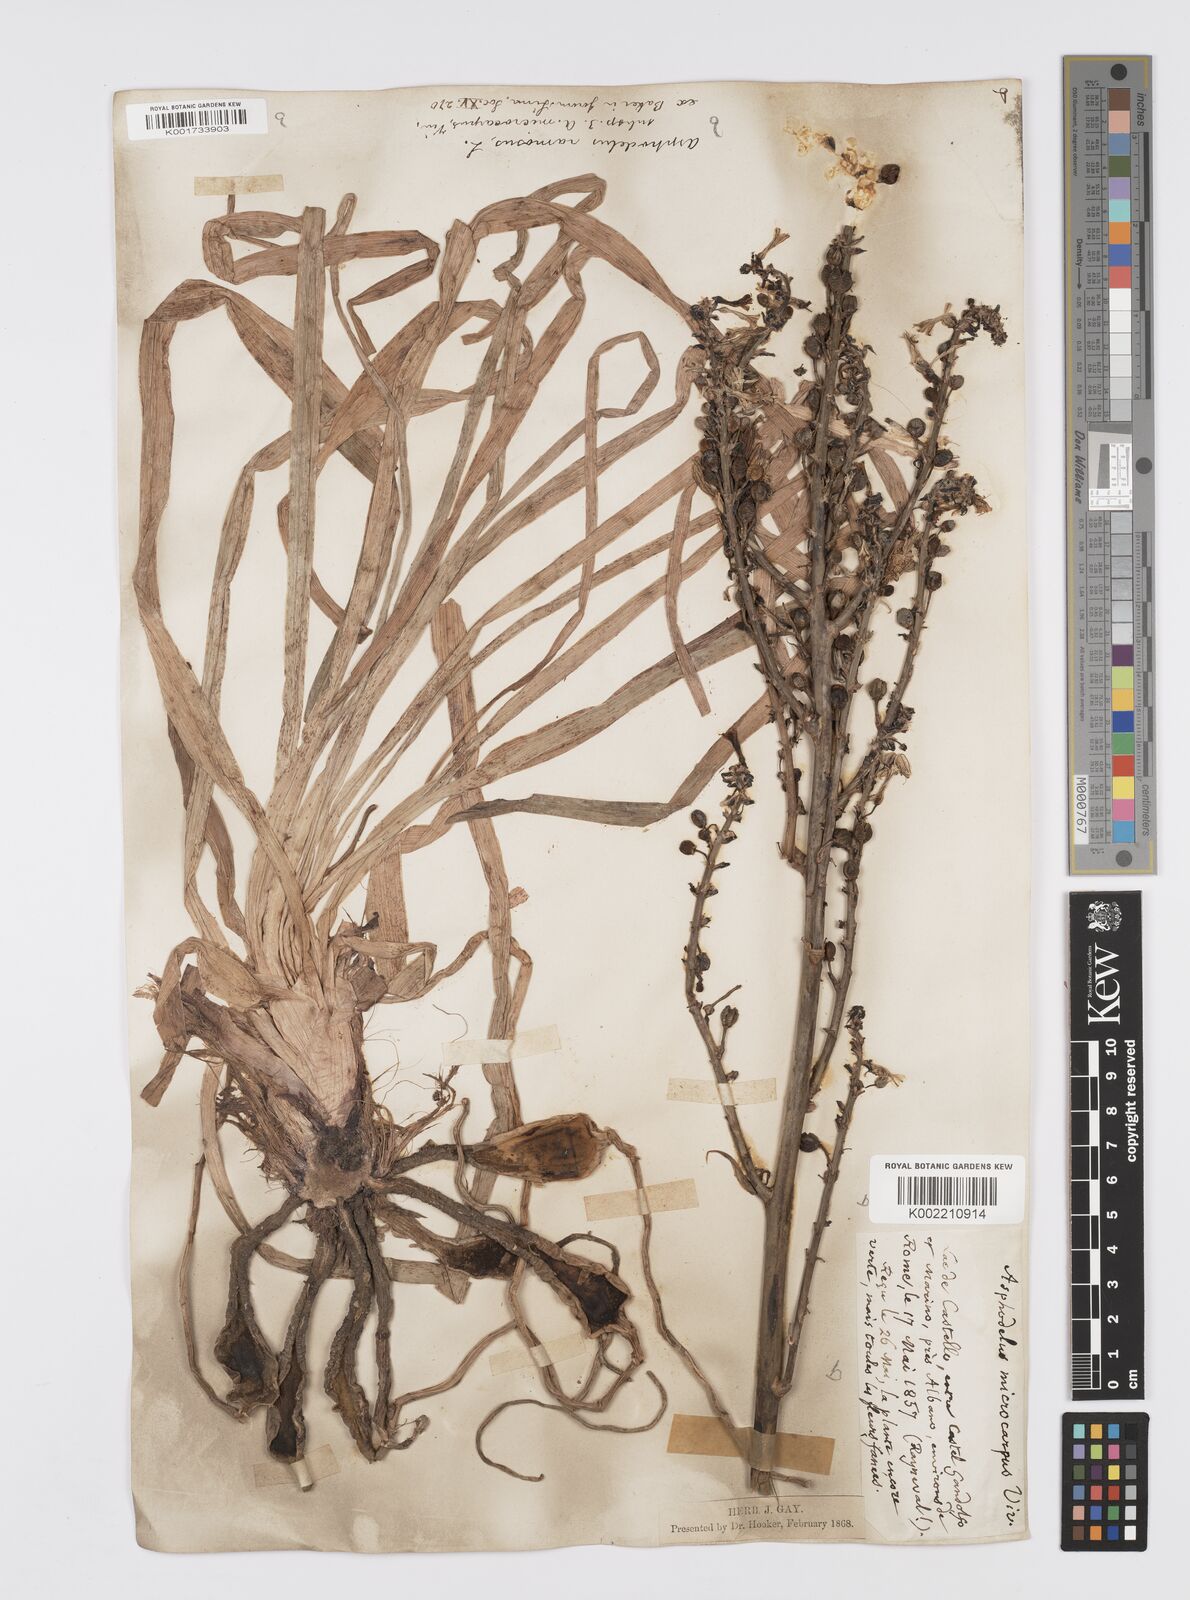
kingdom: Plantae
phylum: Tracheophyta
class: Liliopsida
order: Asparagales
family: Asphodelaceae
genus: Asphodelus
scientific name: Asphodelus ramosus
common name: Silverrod
